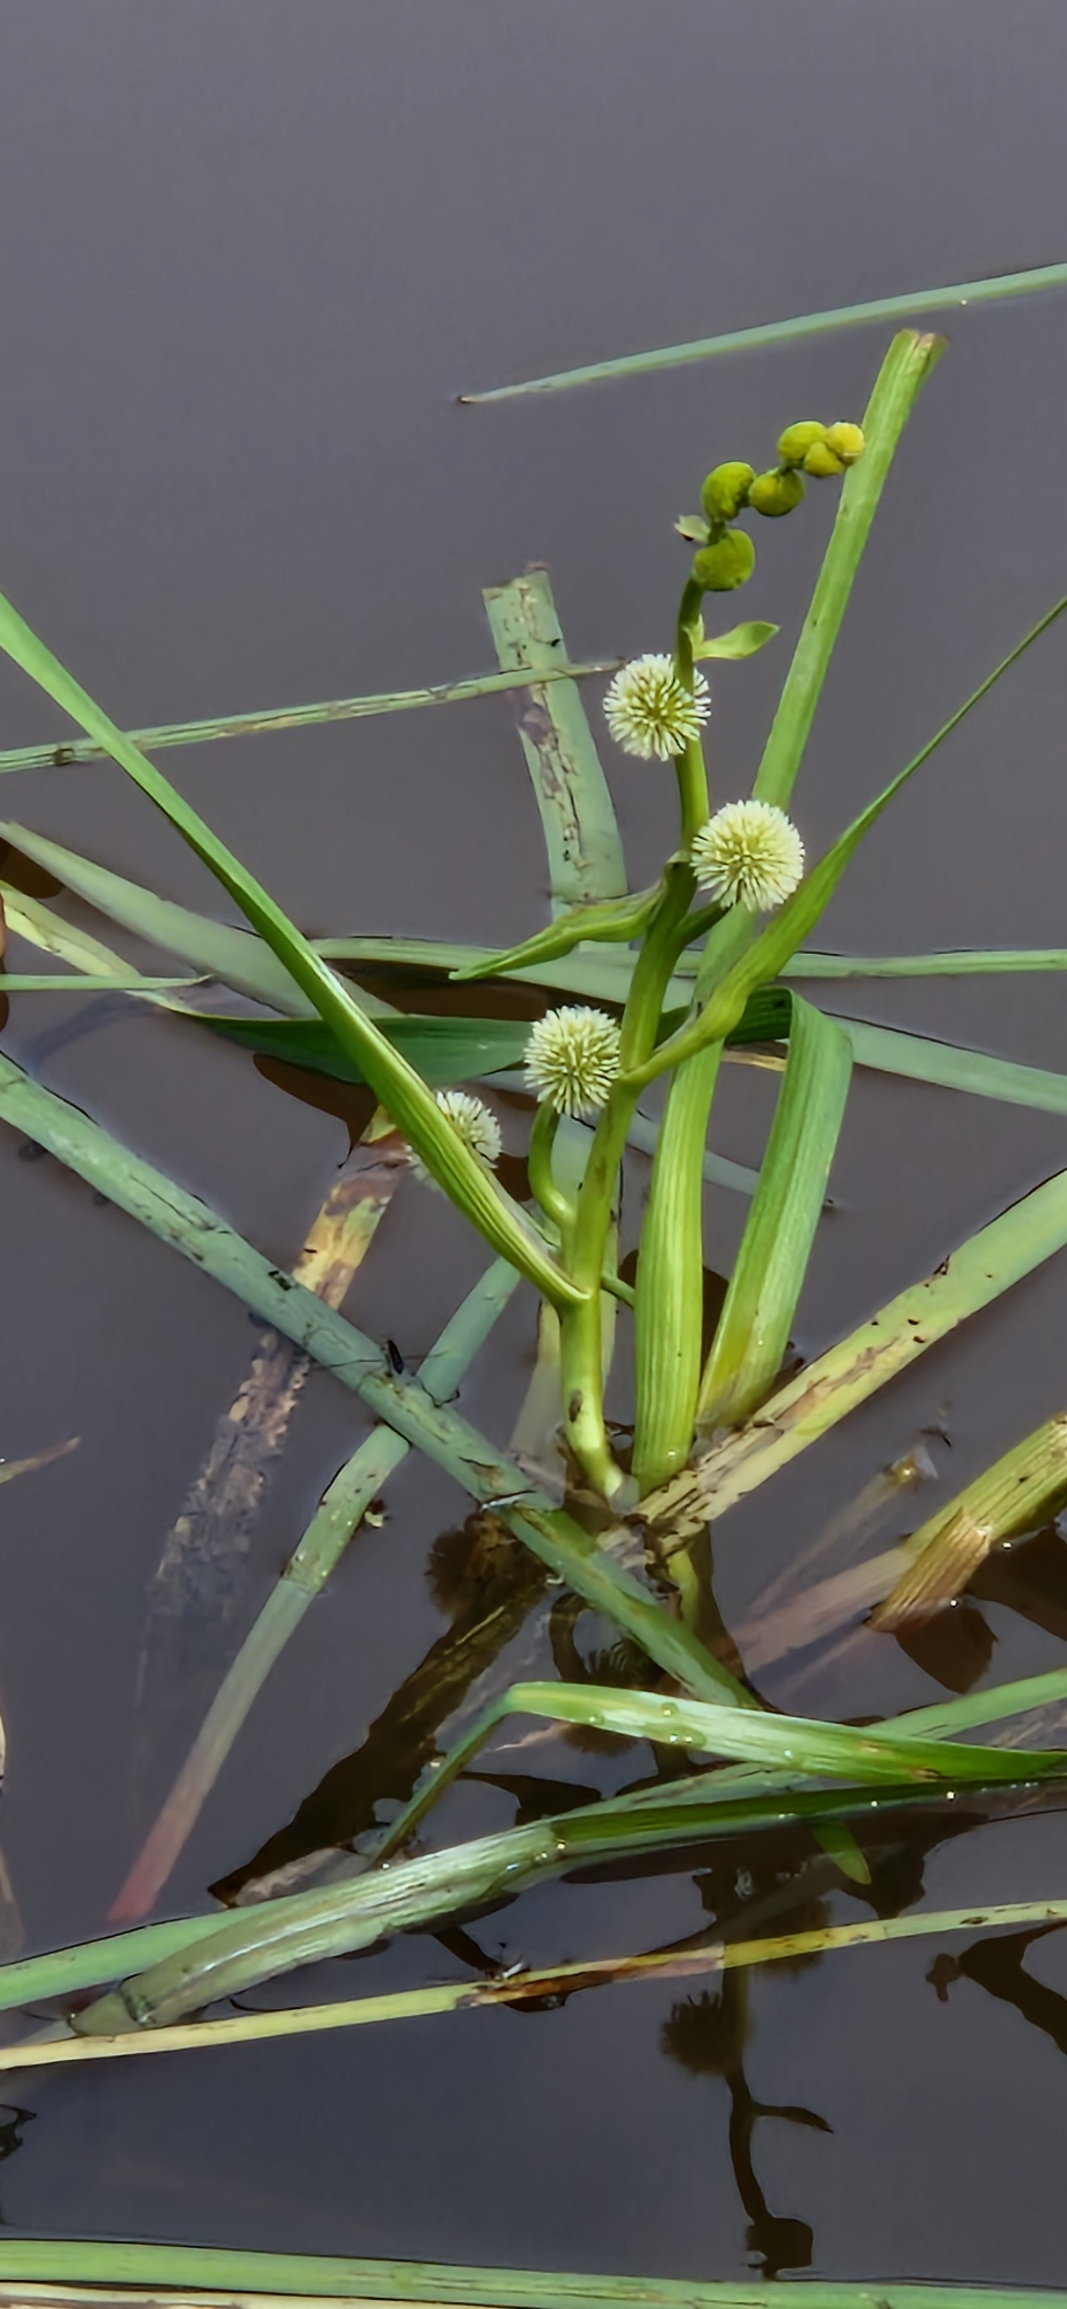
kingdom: Plantae
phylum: Tracheophyta
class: Liliopsida
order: Poales
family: Typhaceae
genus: Sparganium
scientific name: Sparganium emersum
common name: Enkelt pindsvineknop
